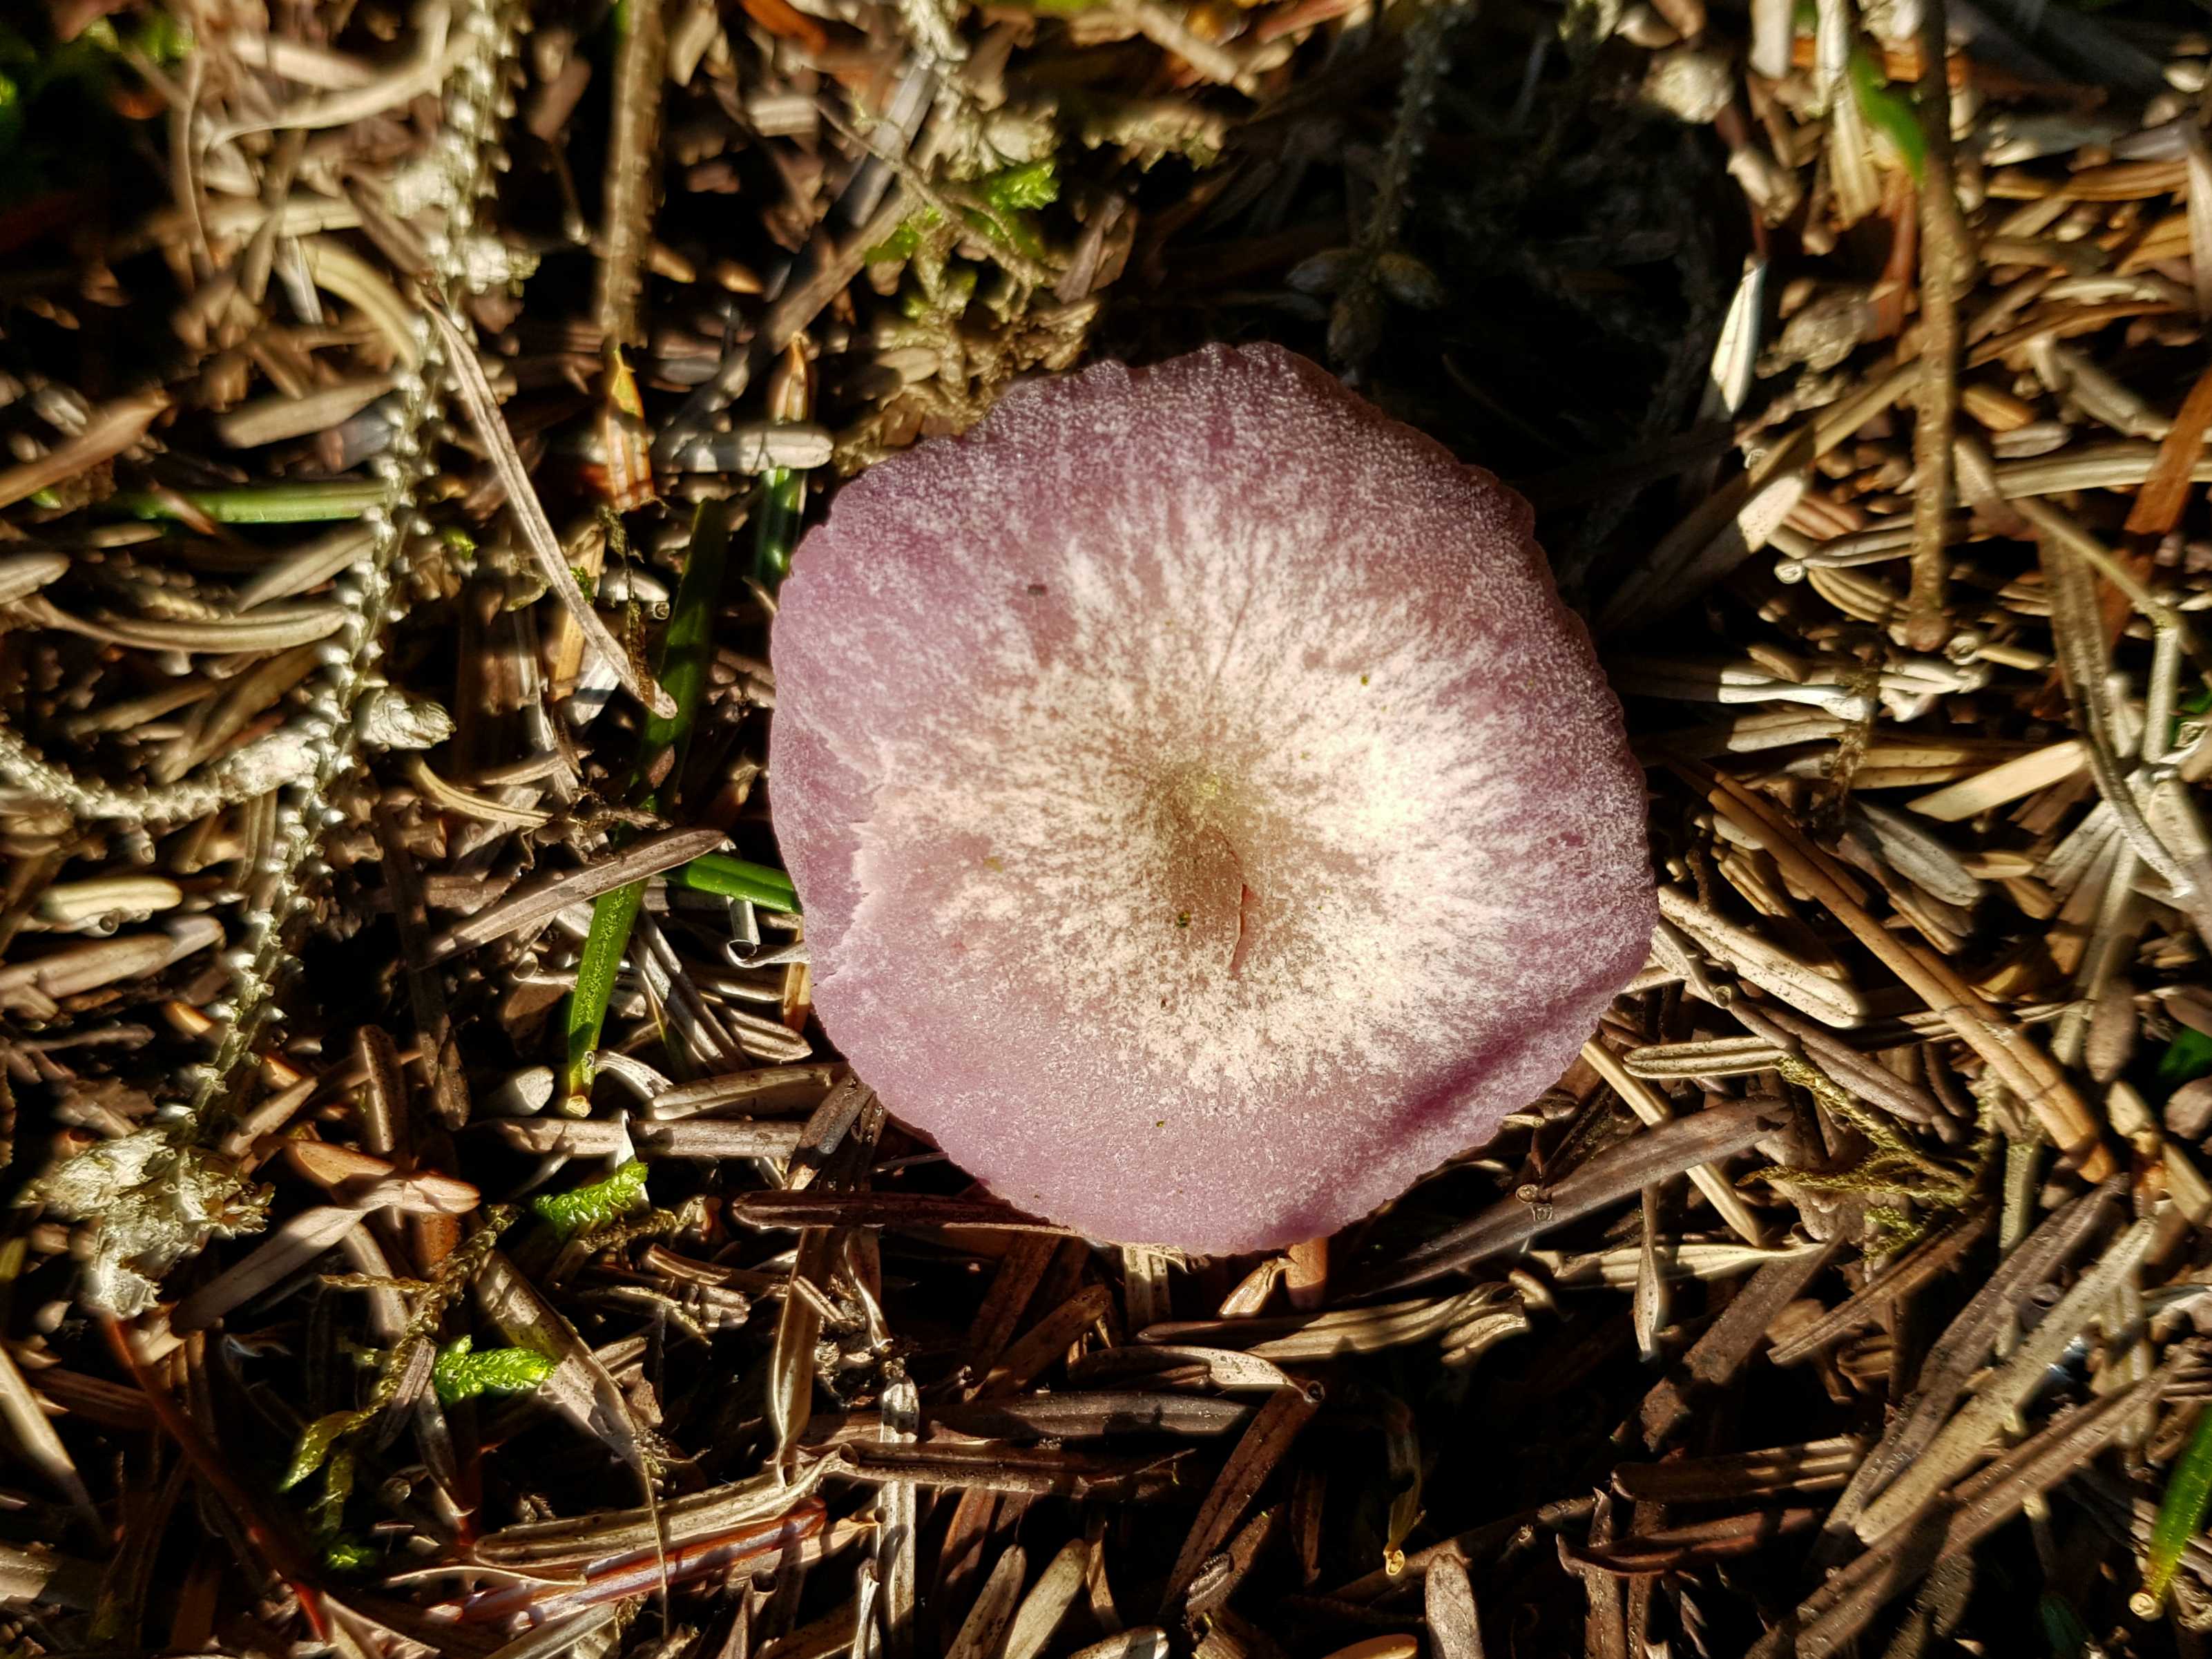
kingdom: Fungi
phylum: Basidiomycota
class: Agaricomycetes
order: Agaricales
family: Hydnangiaceae
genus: Laccaria
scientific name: Laccaria amethystina
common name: violet ametysthat
